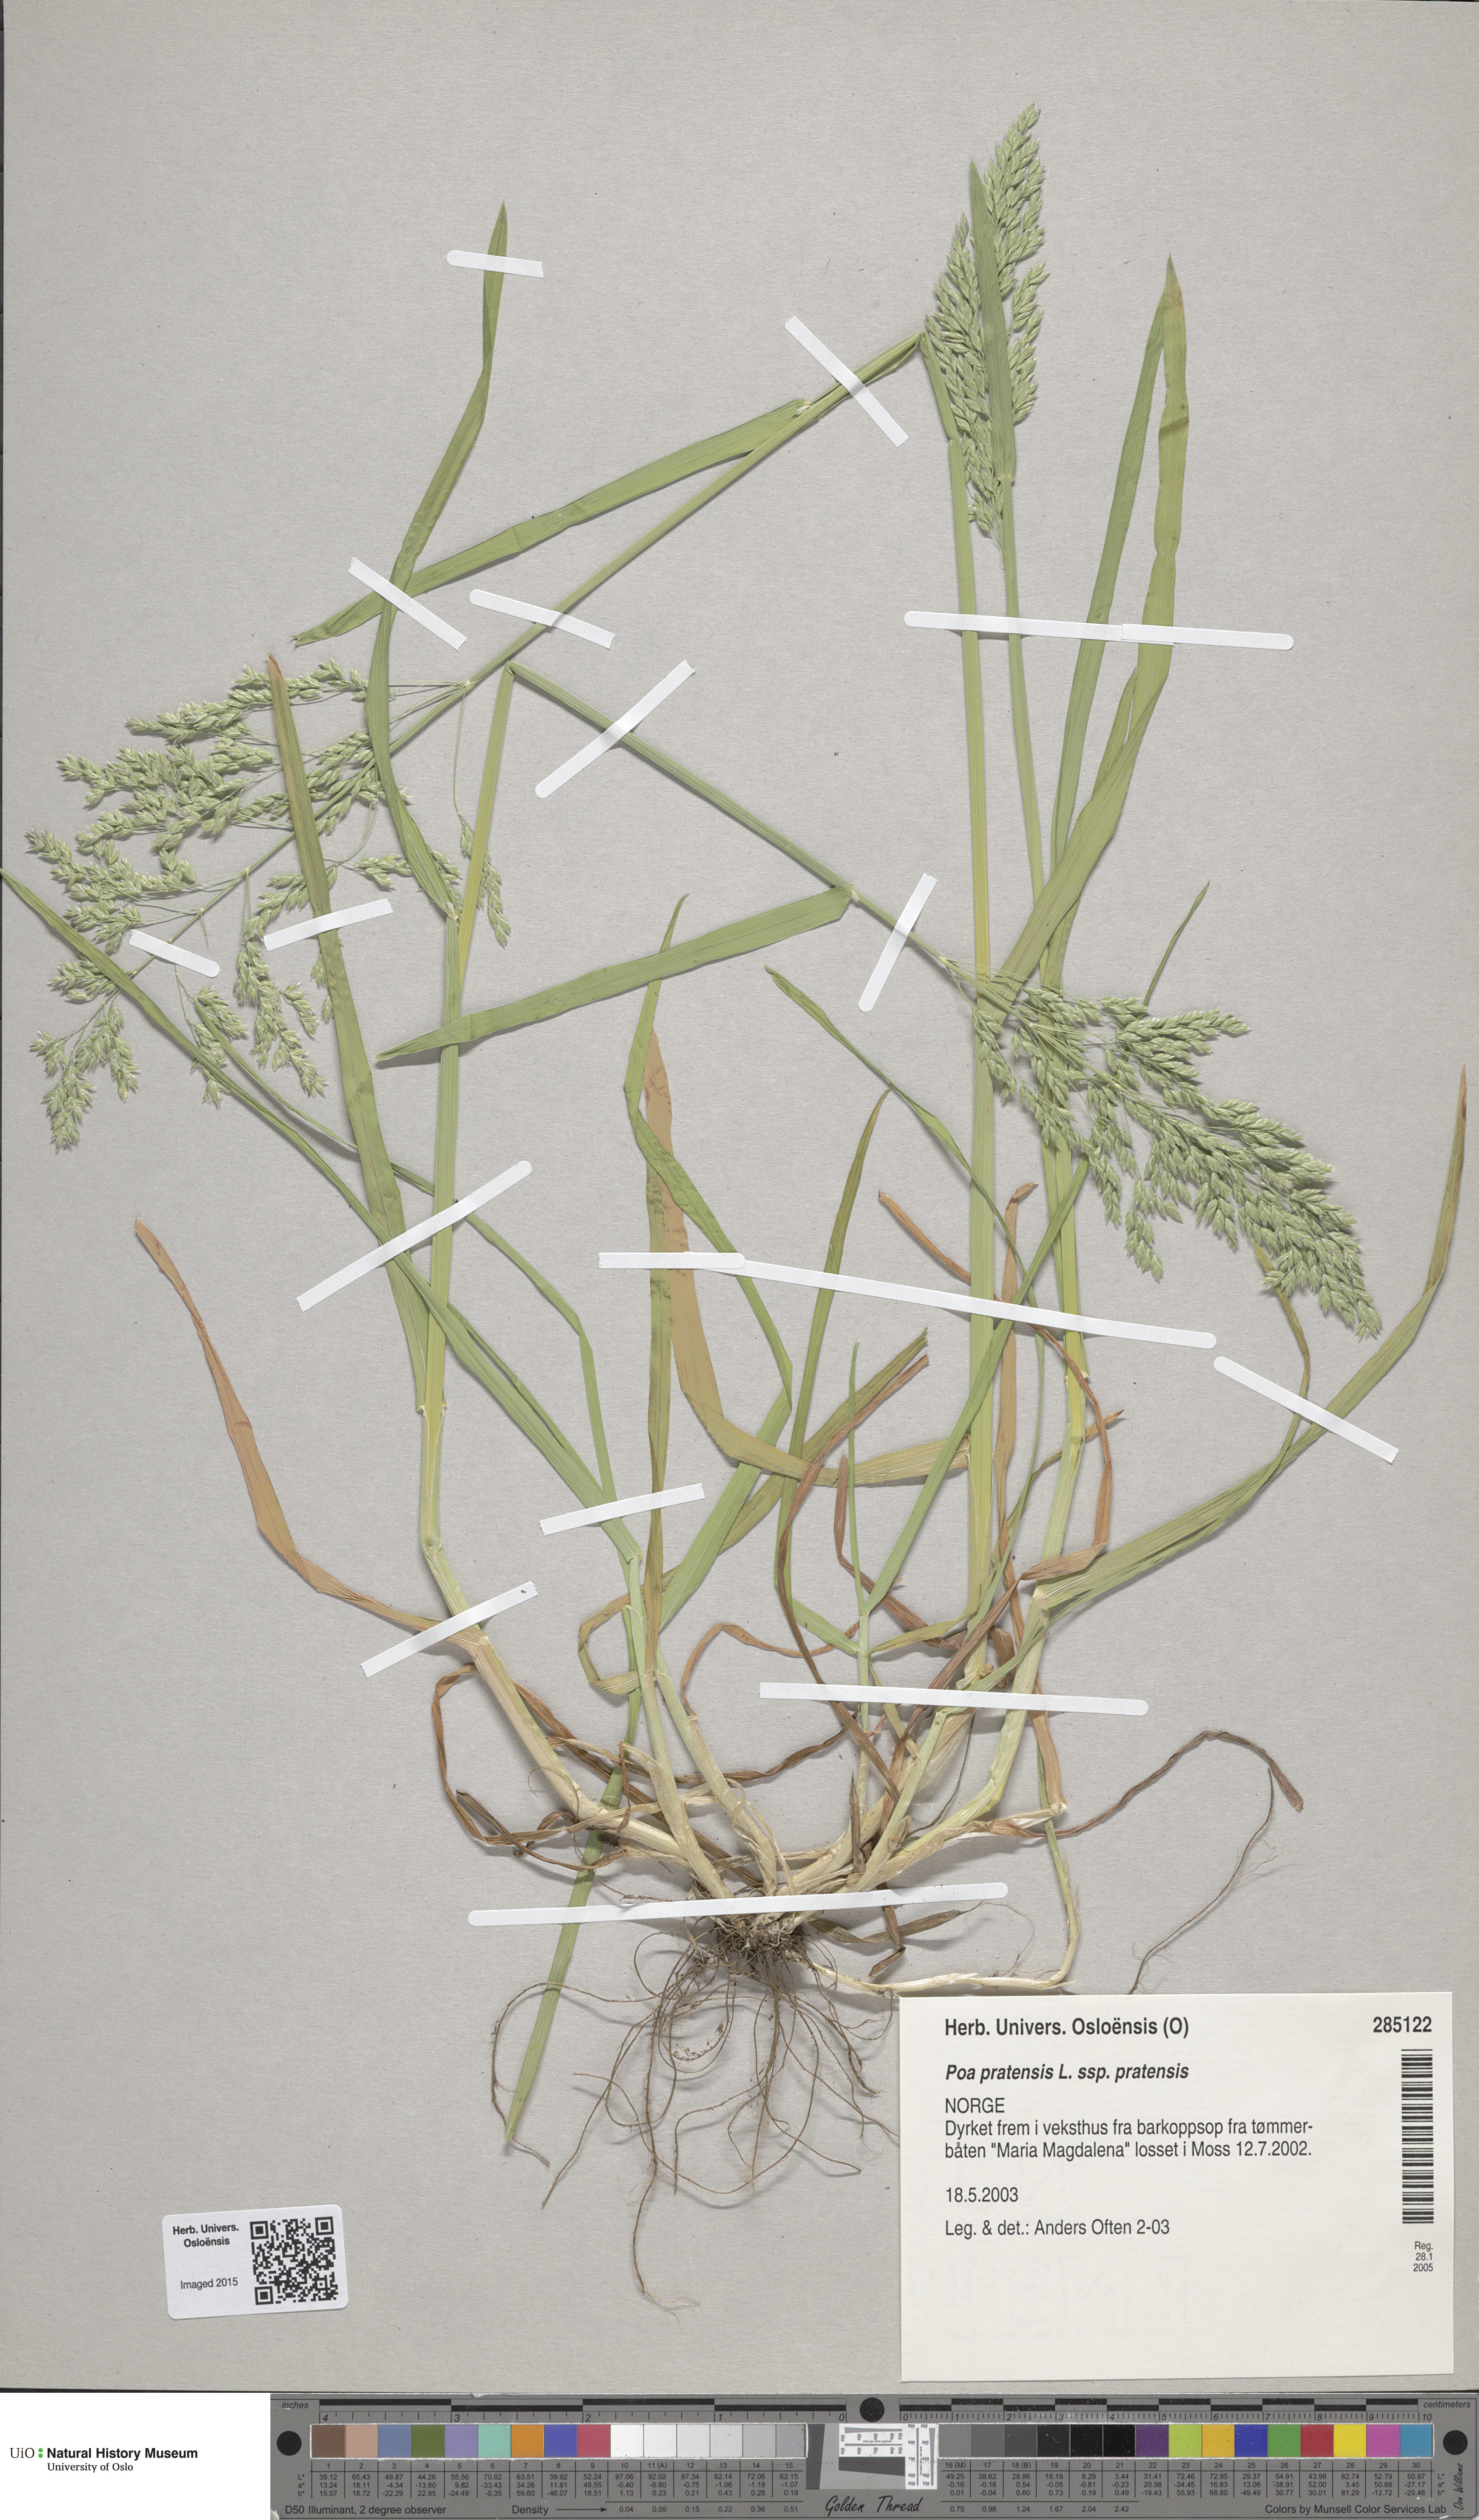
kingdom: Plantae
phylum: Tracheophyta
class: Liliopsida
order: Poales
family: Poaceae
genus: Poa
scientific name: Poa pratensis
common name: Kentucky bluegrass
